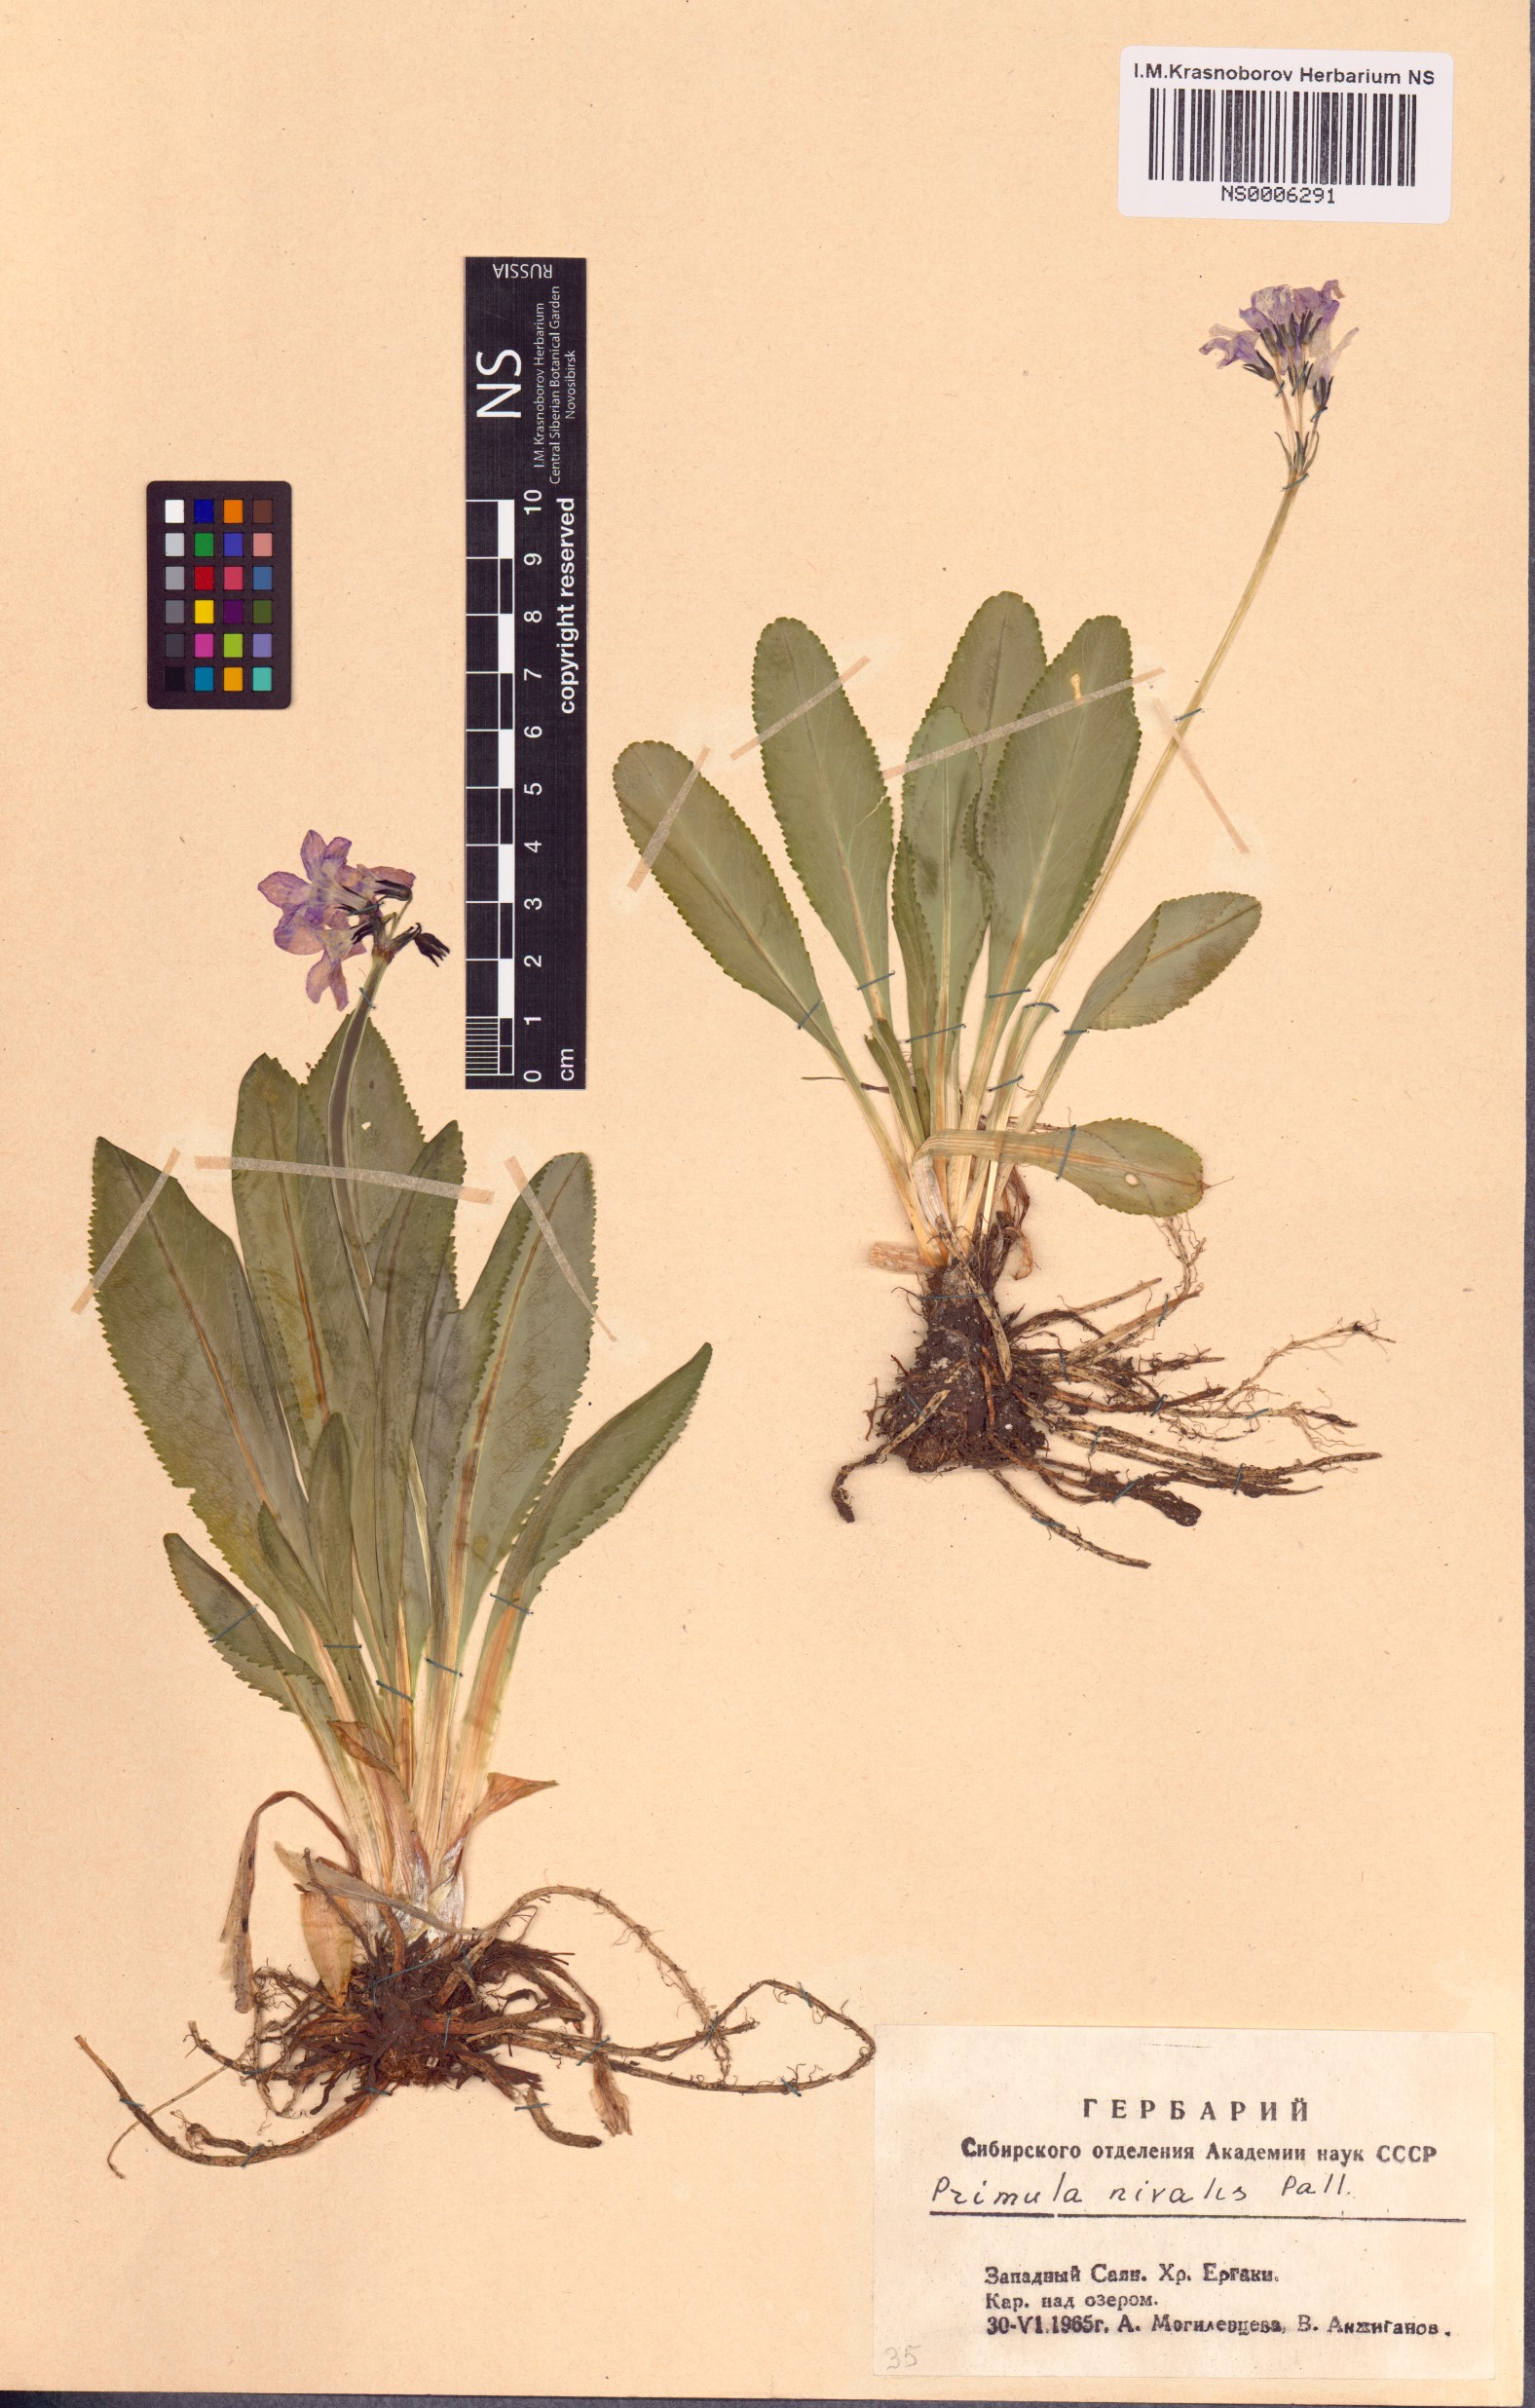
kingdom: Plantae
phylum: Tracheophyta
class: Magnoliopsida
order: Ericales
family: Primulaceae
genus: Primula
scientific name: Primula nivalis
